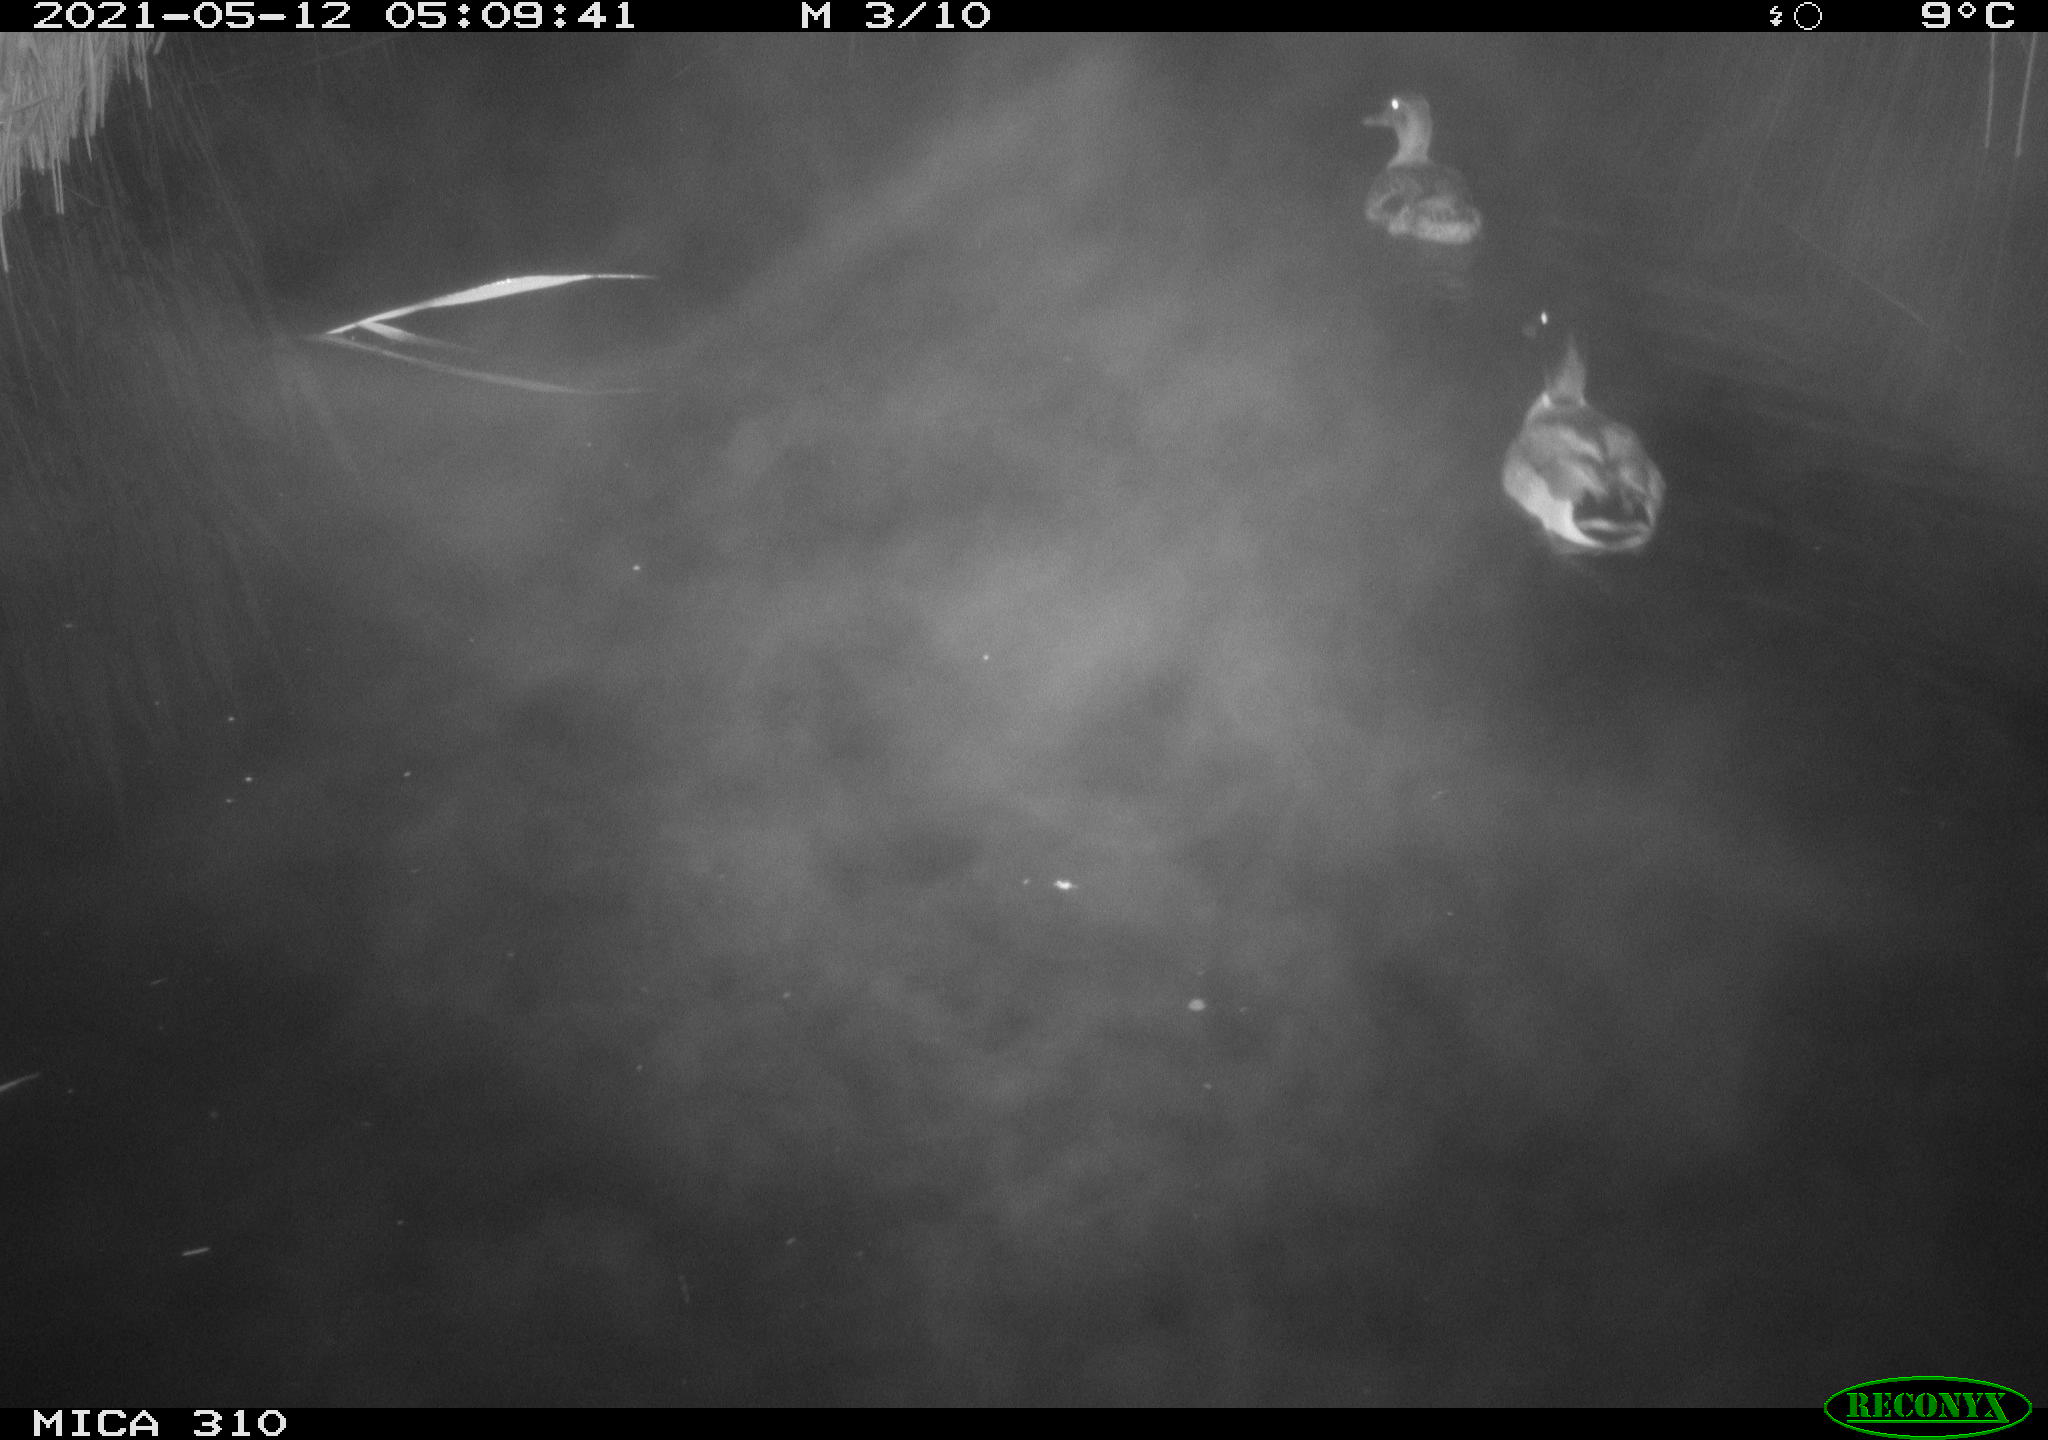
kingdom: Animalia
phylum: Chordata
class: Aves
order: Anseriformes
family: Anatidae
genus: Anas
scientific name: Anas platyrhynchos
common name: Mallard
